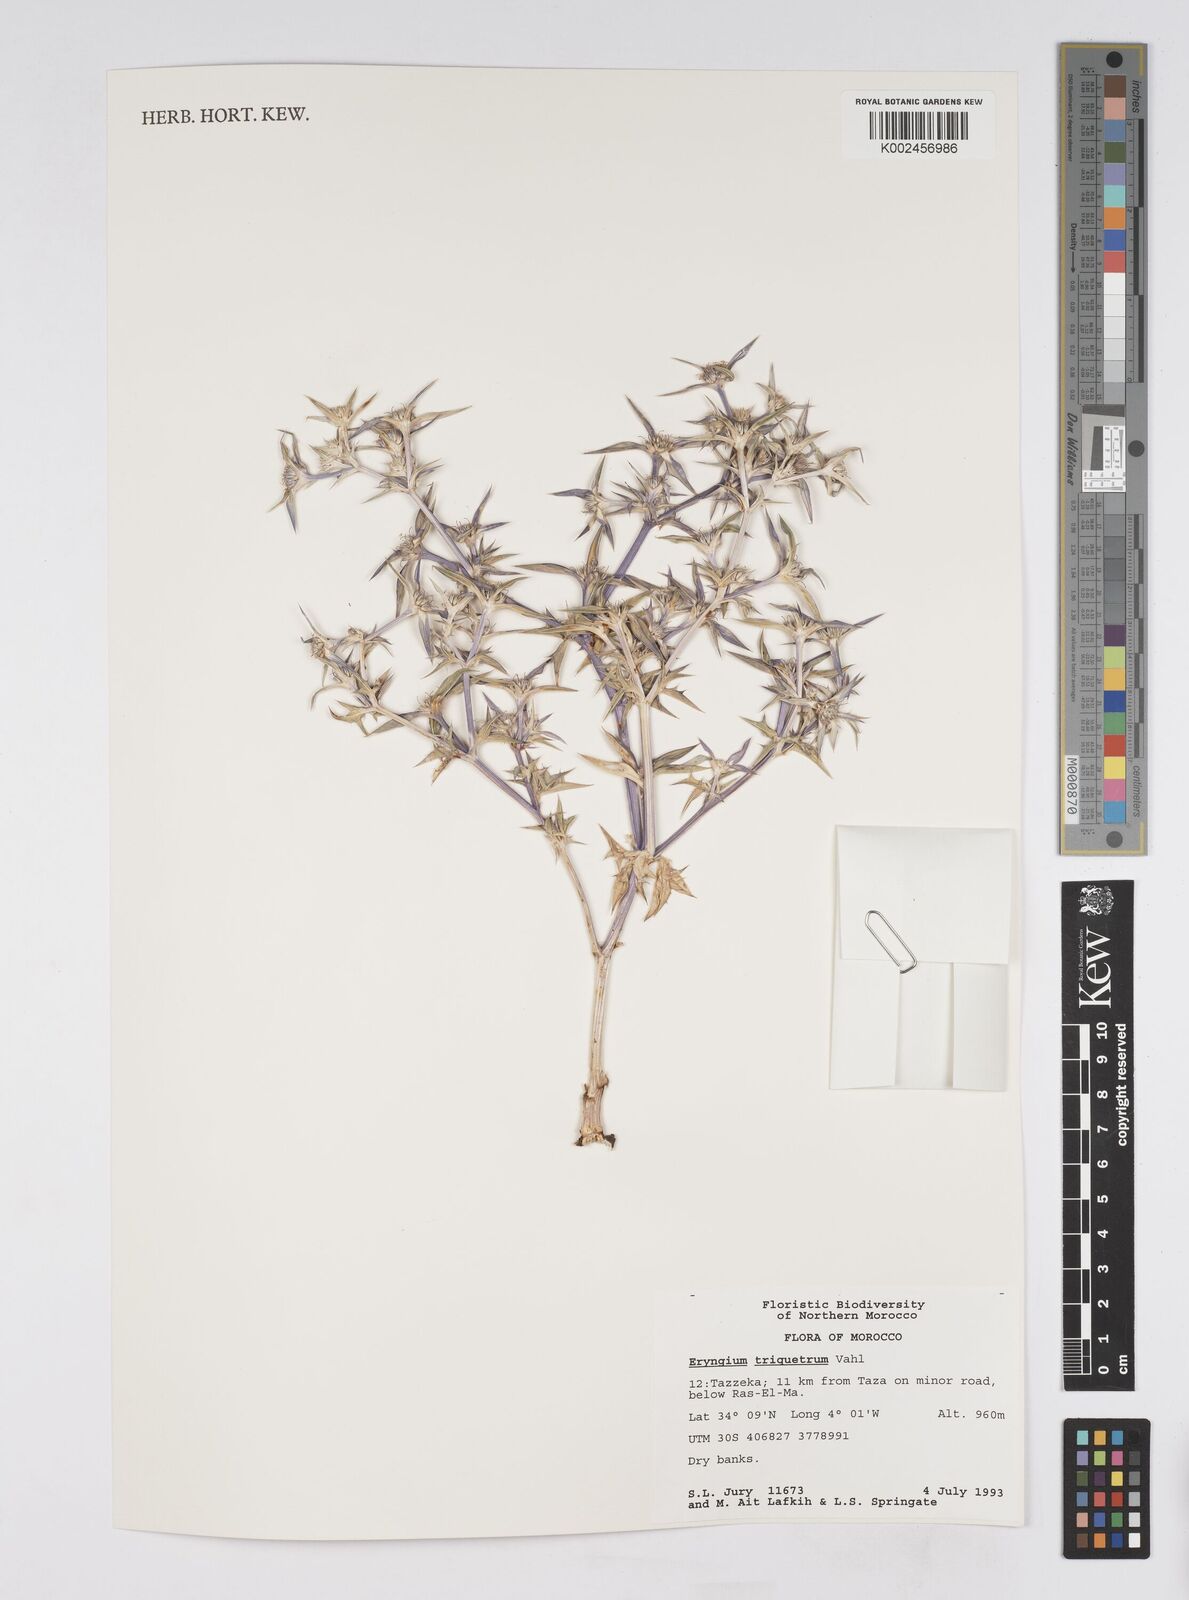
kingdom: Plantae
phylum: Tracheophyta
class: Magnoliopsida
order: Apiales
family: Apiaceae
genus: Eryngium
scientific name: Eryngium triquetrum
